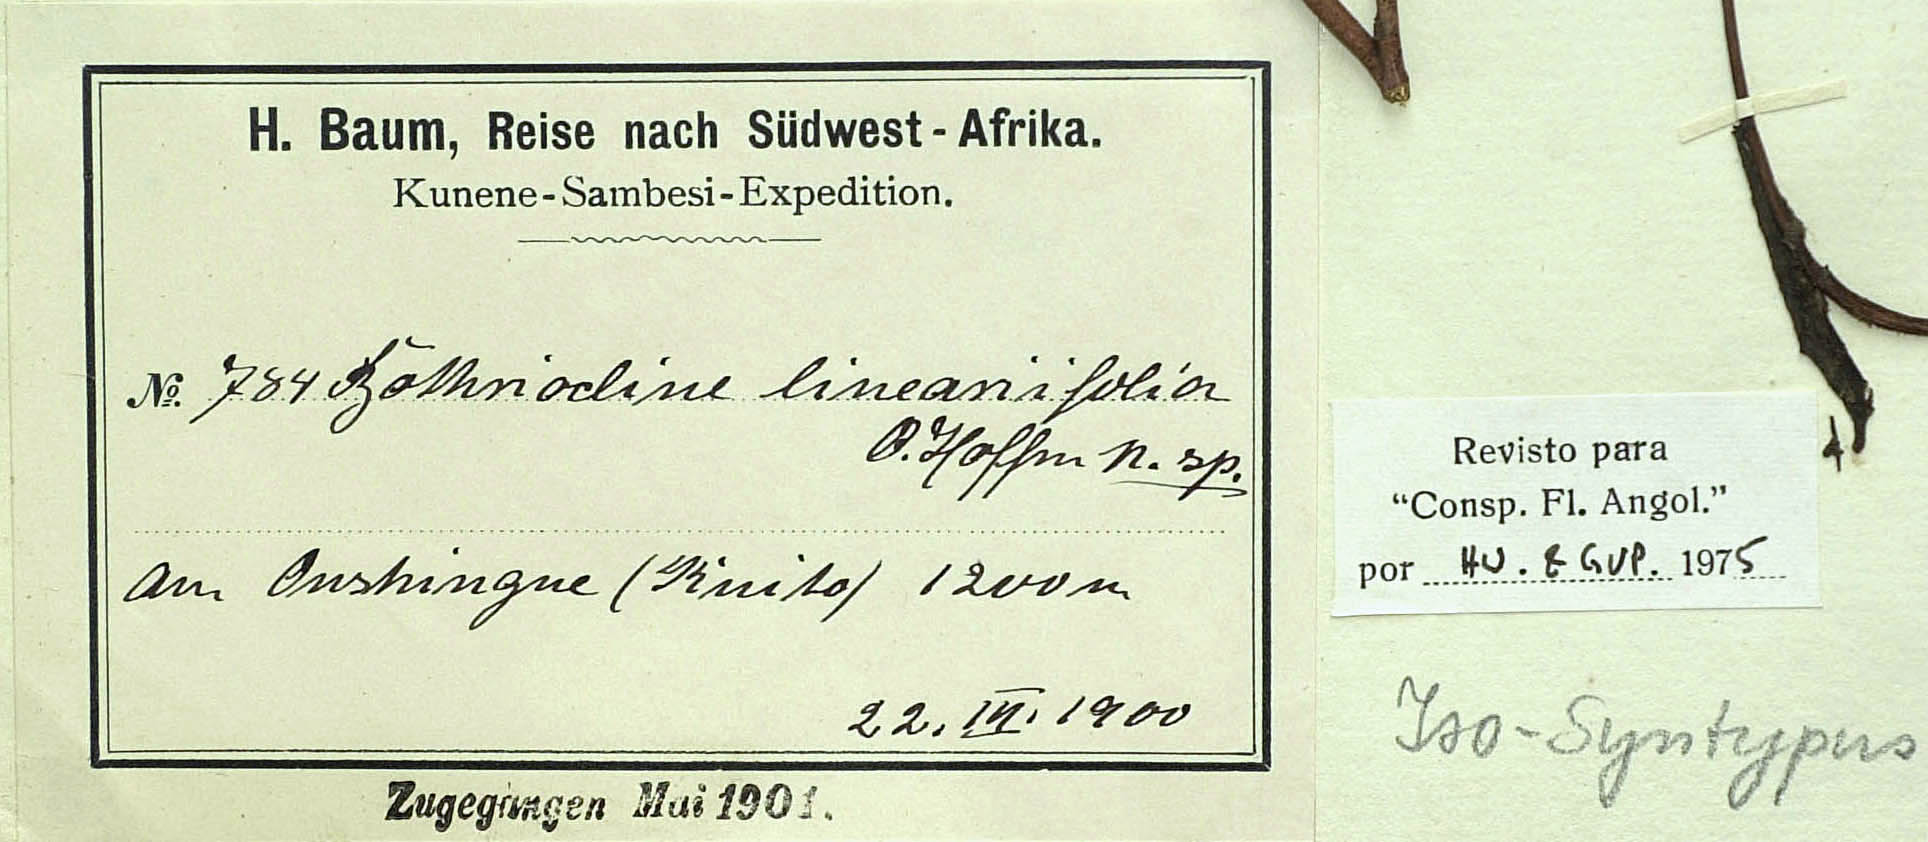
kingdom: Plantae
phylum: Tracheophyta
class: Magnoliopsida
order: Asterales
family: Asteraceae
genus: Erlangea
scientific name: Erlangea linearifolia
